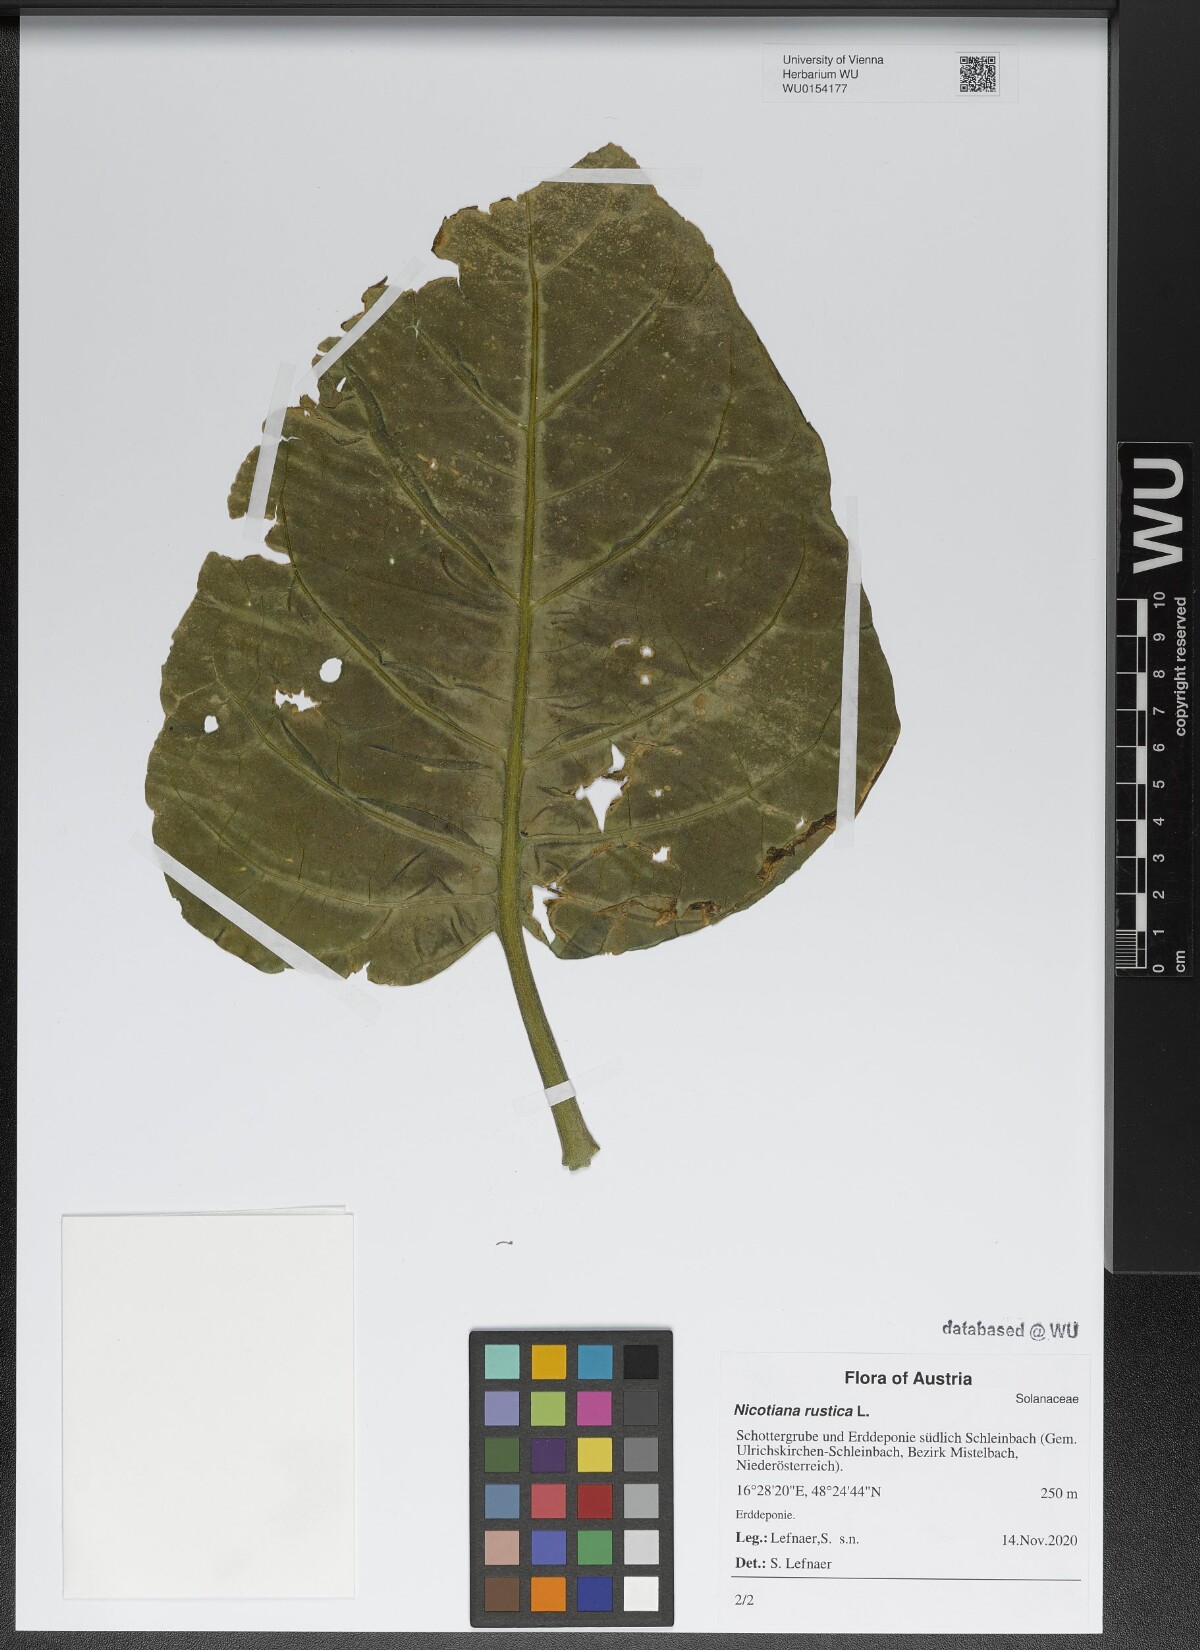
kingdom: Plantae
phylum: Tracheophyta
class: Magnoliopsida
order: Solanales
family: Solanaceae
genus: Nicotiana
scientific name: Nicotiana rustica
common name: Wild tobacco
